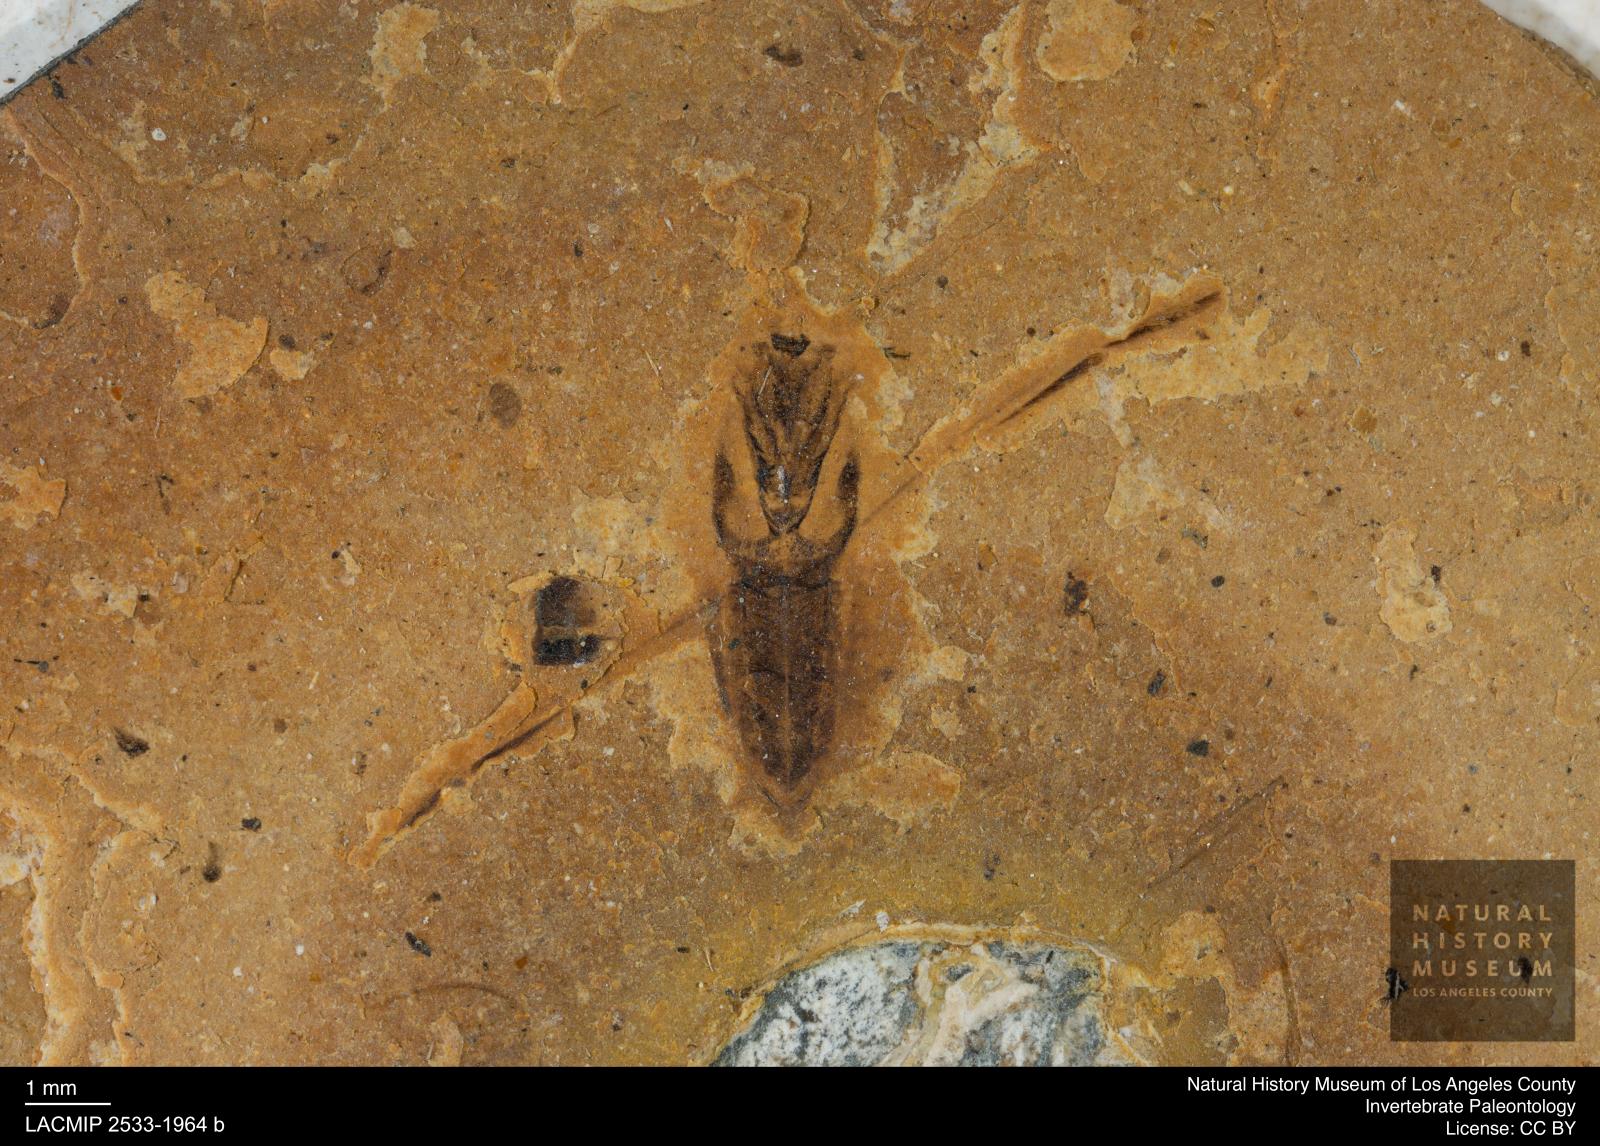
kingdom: Animalia
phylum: Arthropoda
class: Insecta
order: Hemiptera
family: Notonectidae
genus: Anisops
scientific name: Anisops Notonecta deichmuelleri
